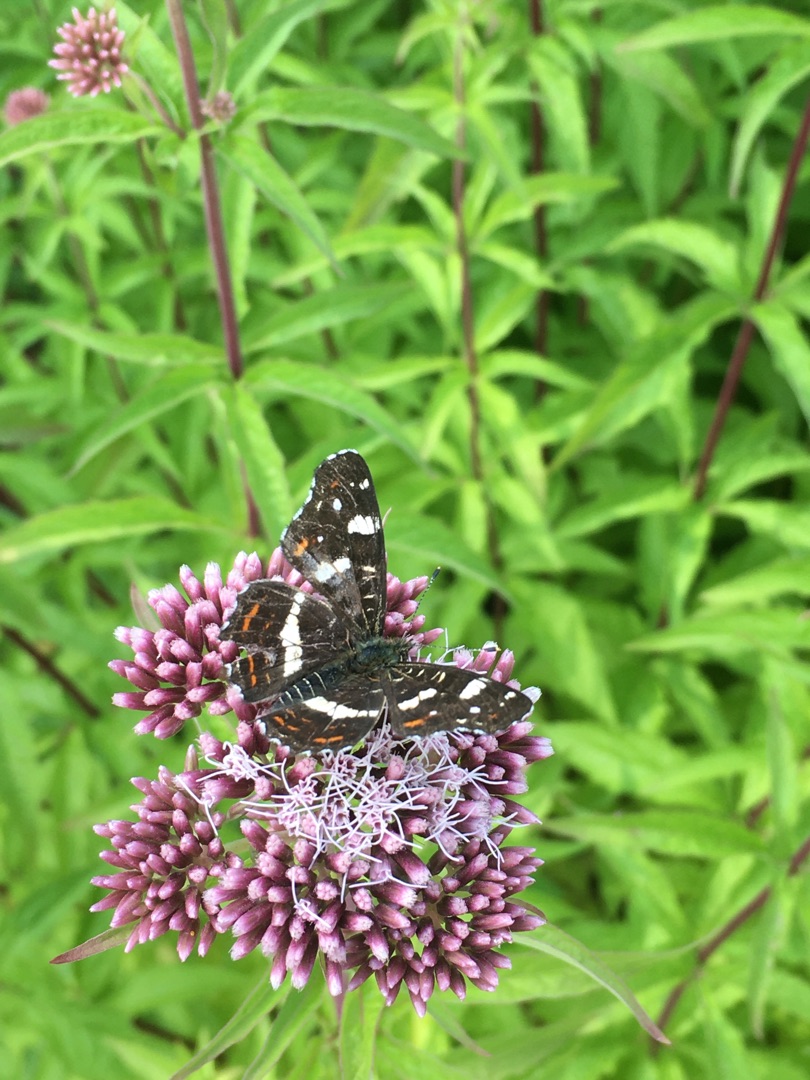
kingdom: Animalia
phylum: Arthropoda
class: Insecta
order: Lepidoptera
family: Nymphalidae
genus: Araschnia
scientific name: Araschnia levana
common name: Nældesommerfugl
